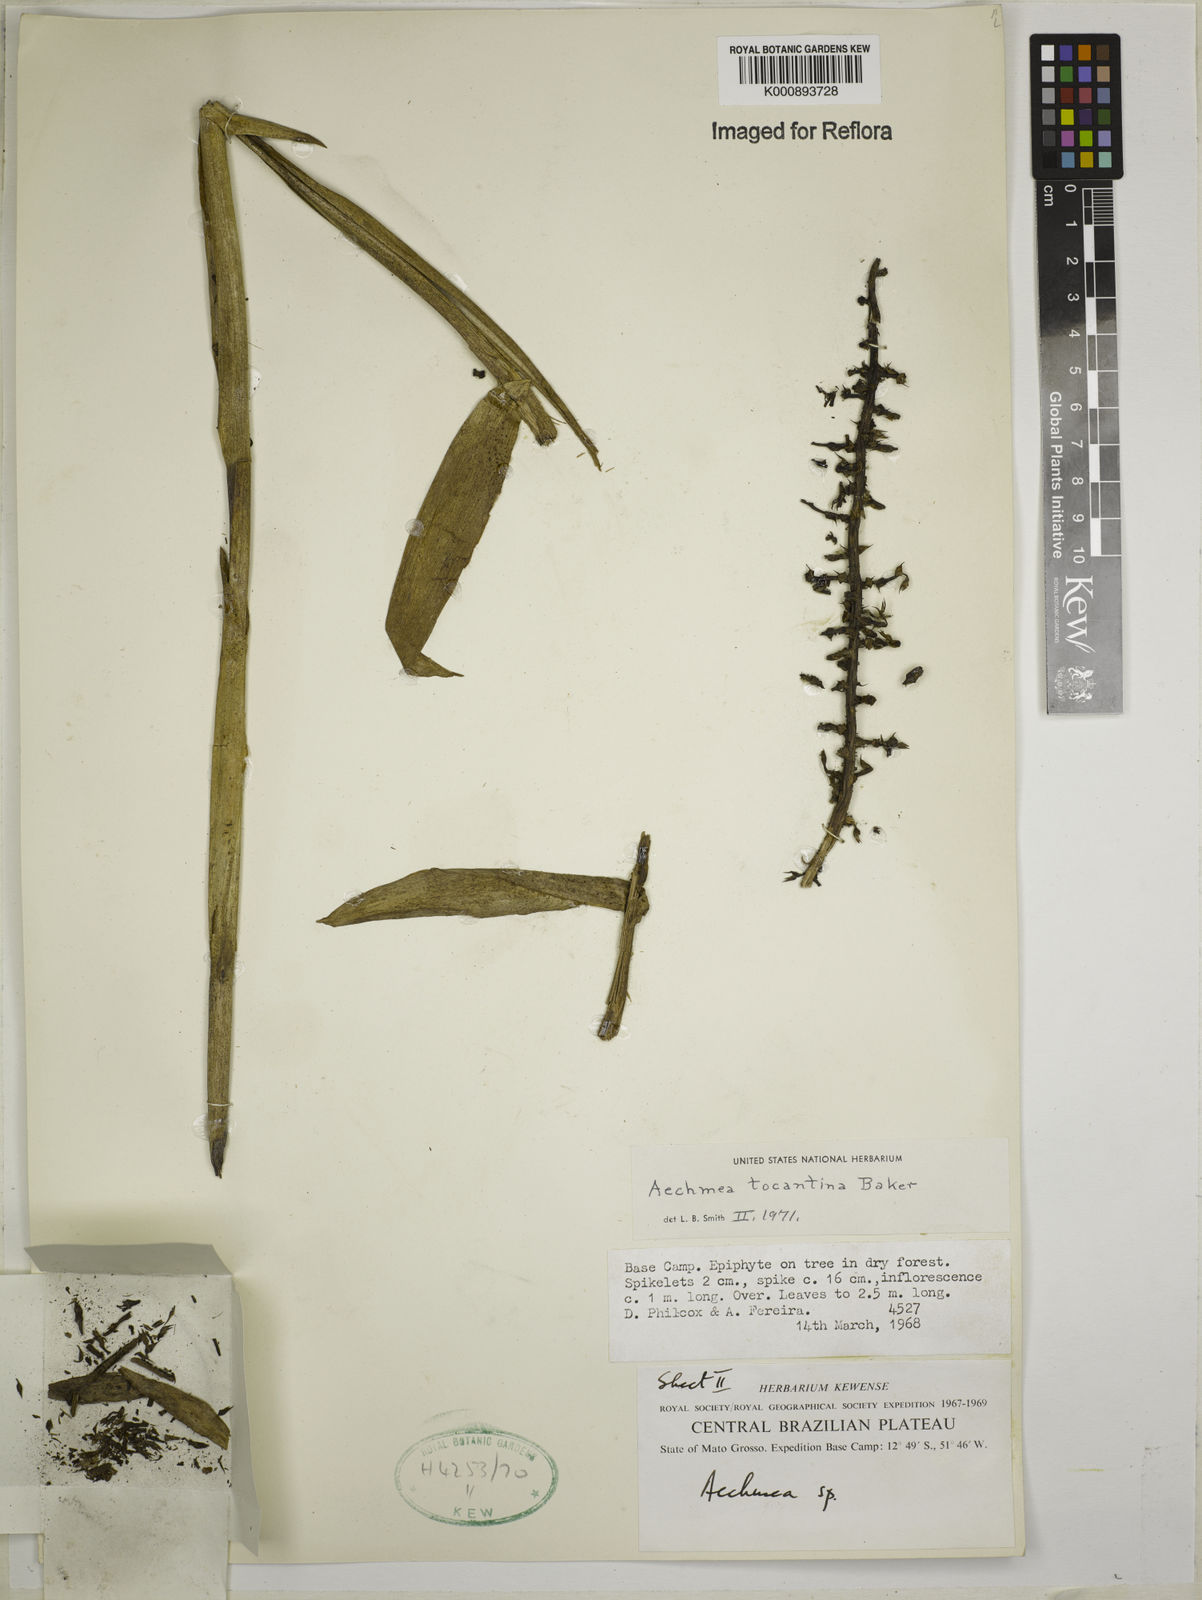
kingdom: Plantae
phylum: Tracheophyta
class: Liliopsida
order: Poales
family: Bromeliaceae
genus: Aechmea
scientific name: Aechmea tocantina
